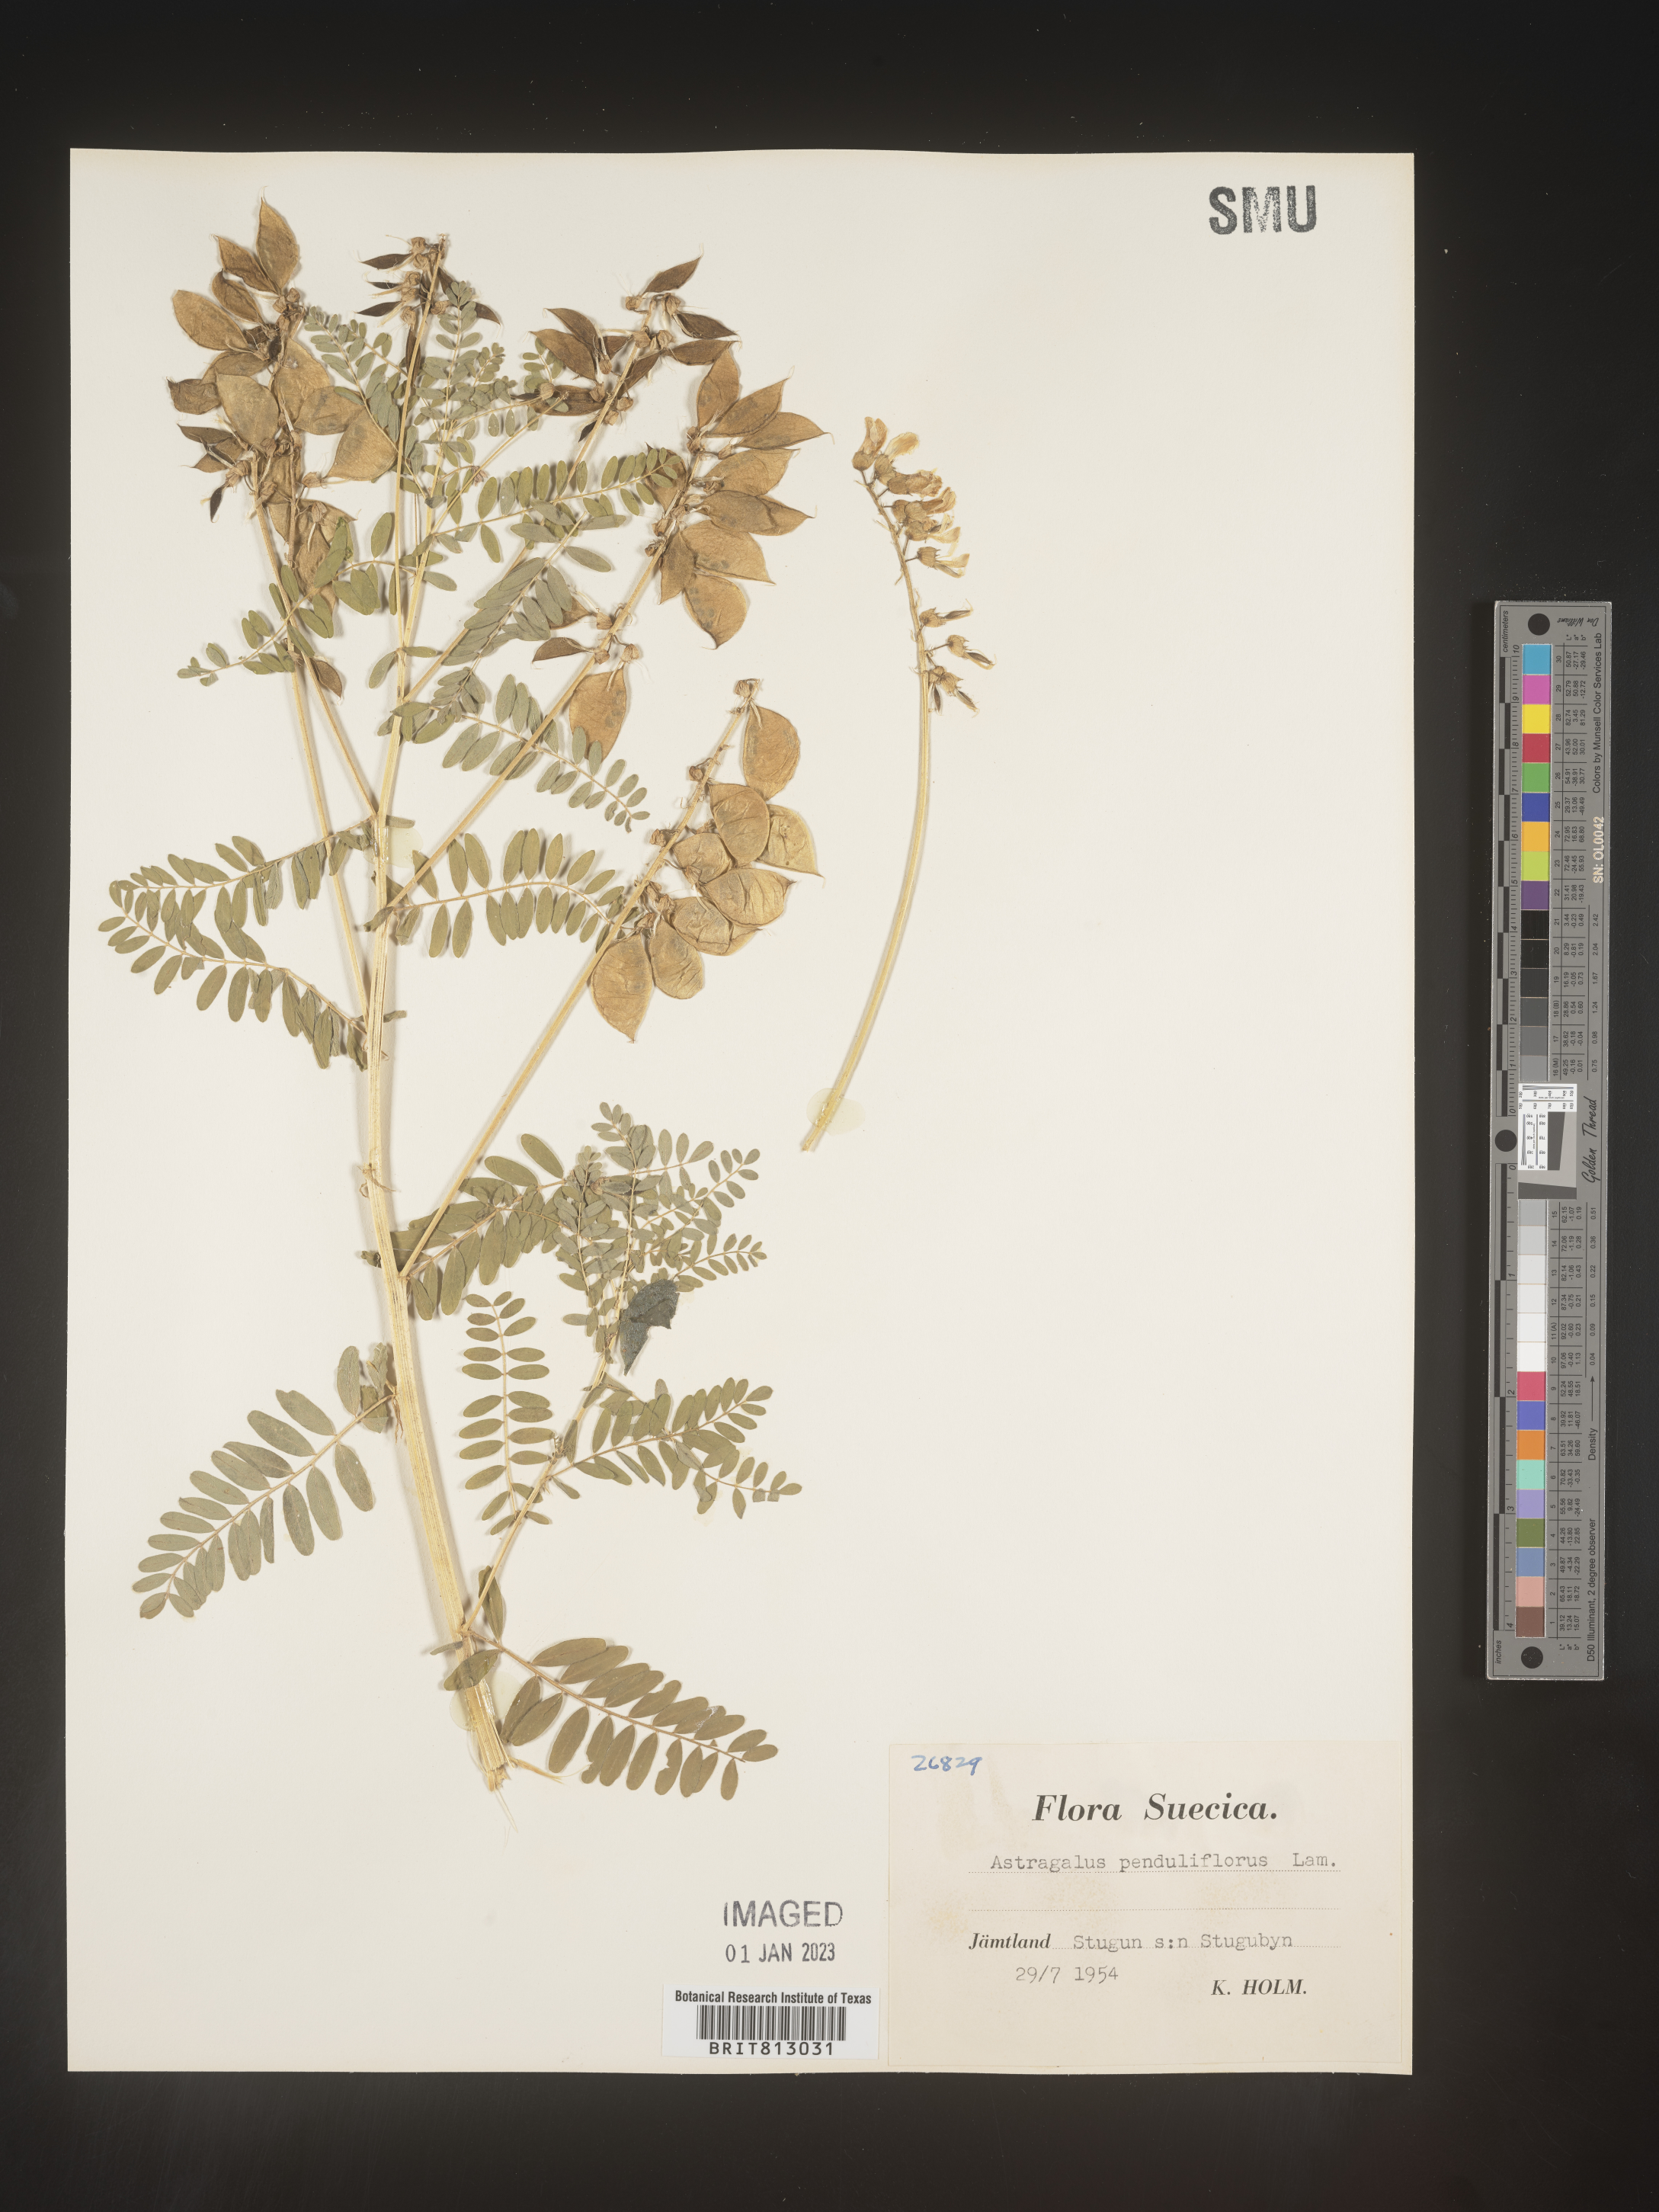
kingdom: Plantae
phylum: Tracheophyta
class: Magnoliopsida
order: Fabales
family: Fabaceae
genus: Astragalus
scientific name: Astragalus
